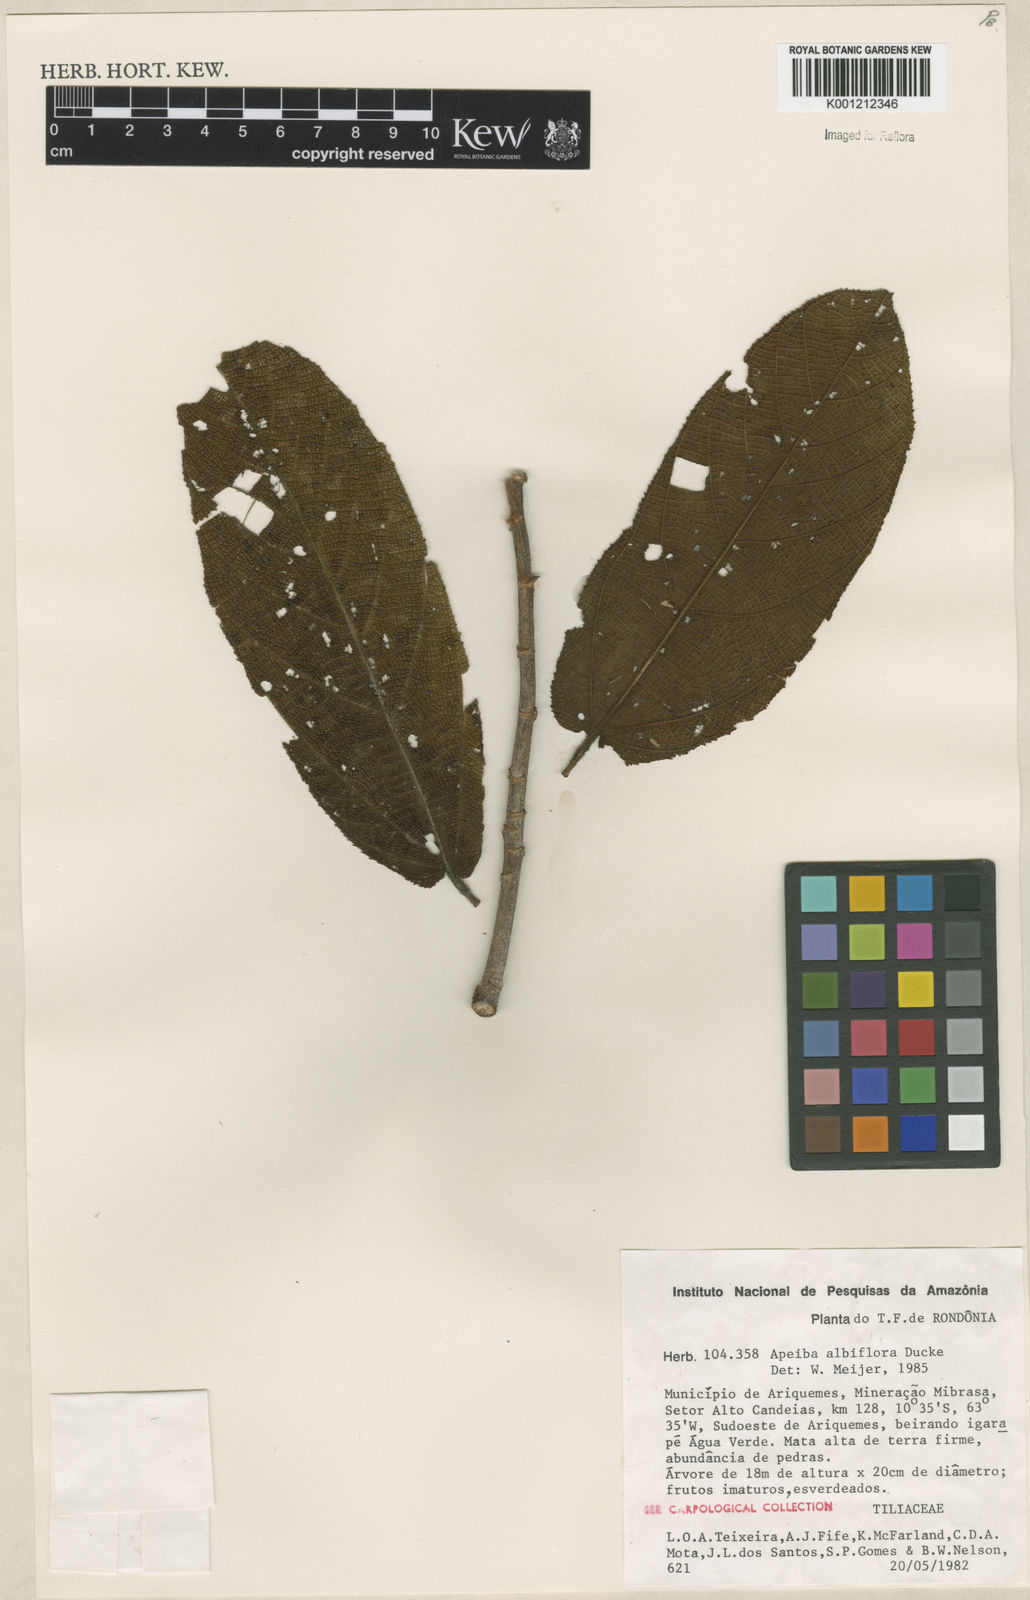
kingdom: Plantae
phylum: Tracheophyta
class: Magnoliopsida
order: Malvales
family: Malvaceae
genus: Apeiba
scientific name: Apeiba albiflora
